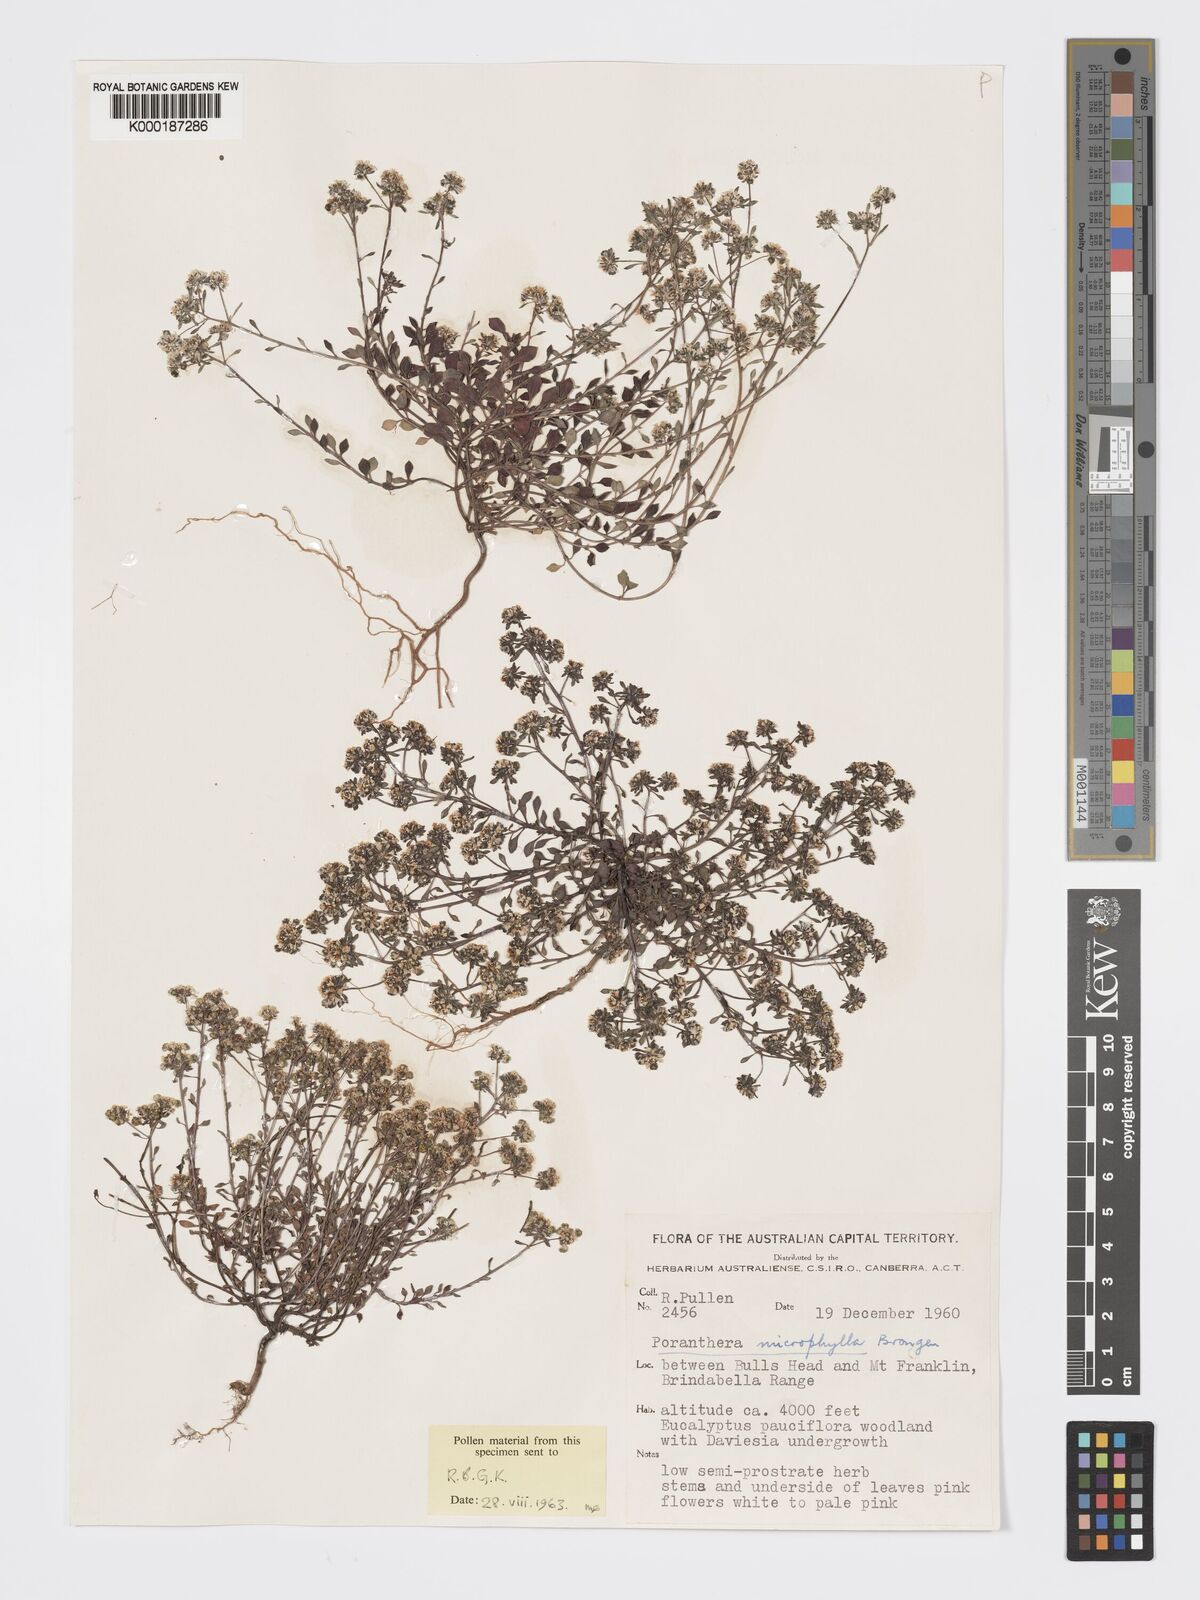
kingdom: Plantae
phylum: Tracheophyta
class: Magnoliopsida
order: Malpighiales
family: Phyllanthaceae
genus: Poranthera
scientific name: Poranthera microphylla
